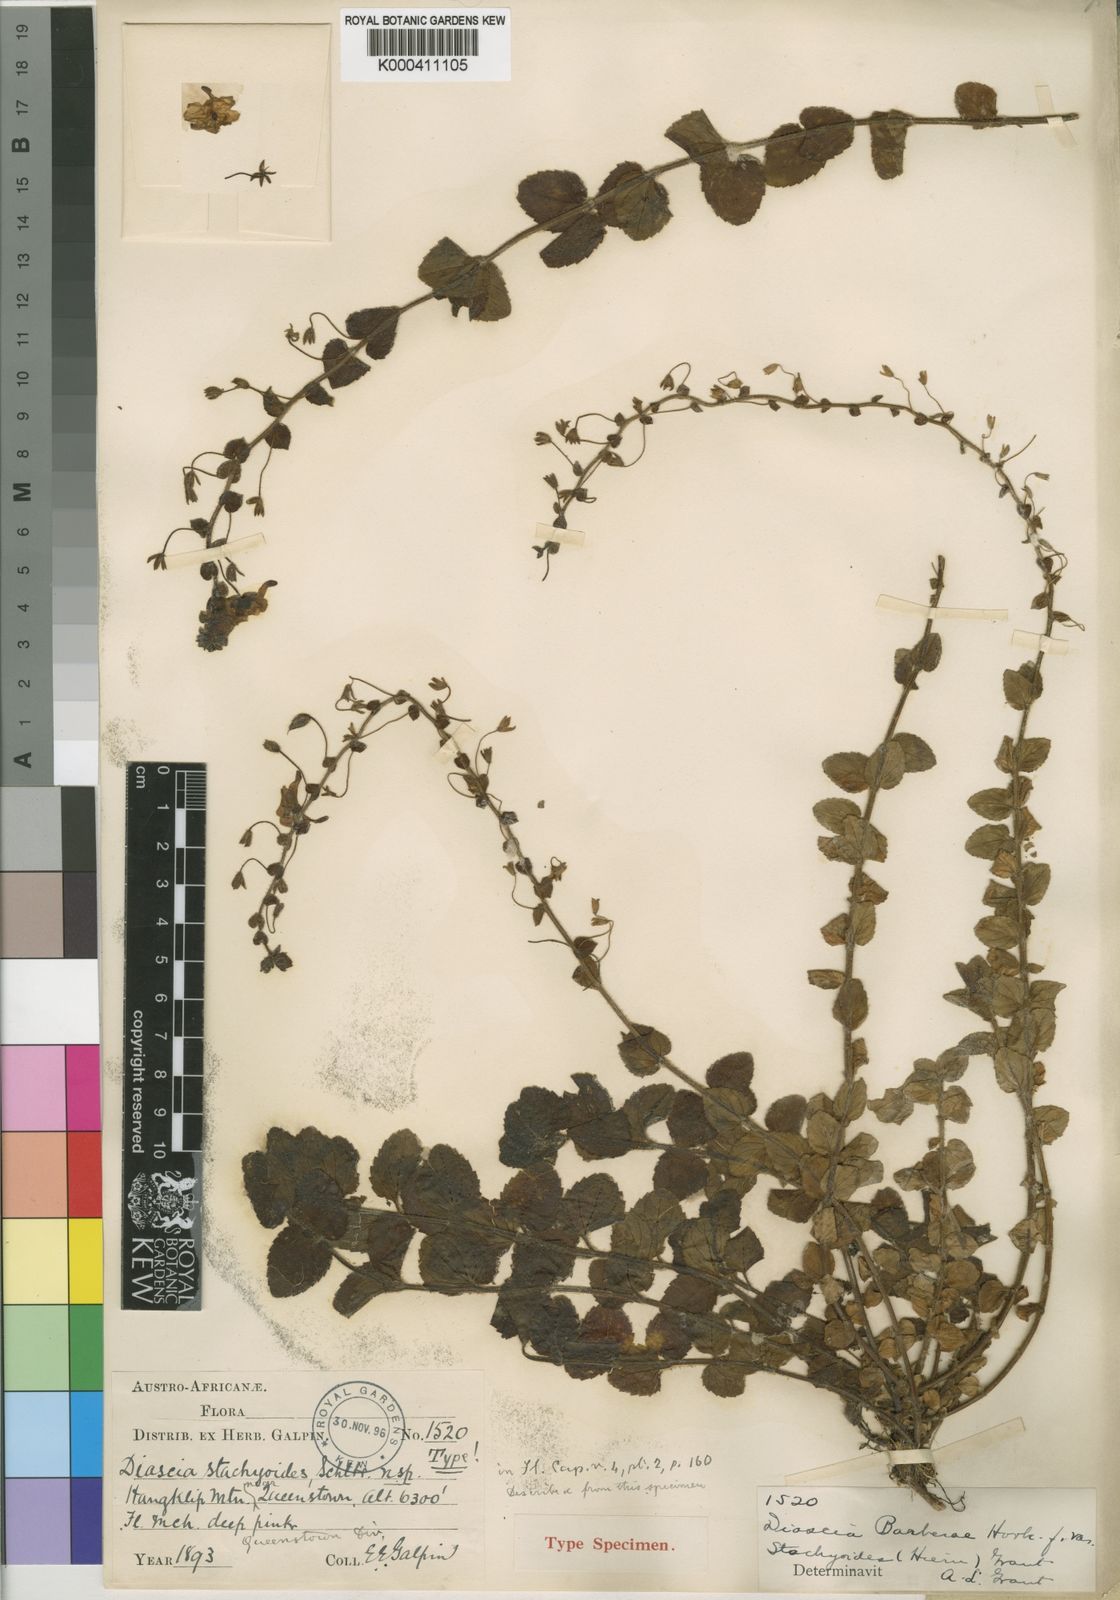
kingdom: Plantae
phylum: Tracheophyta
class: Magnoliopsida
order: Lamiales
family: Scrophulariaceae
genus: Diascia
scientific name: Diascia stachyoides
